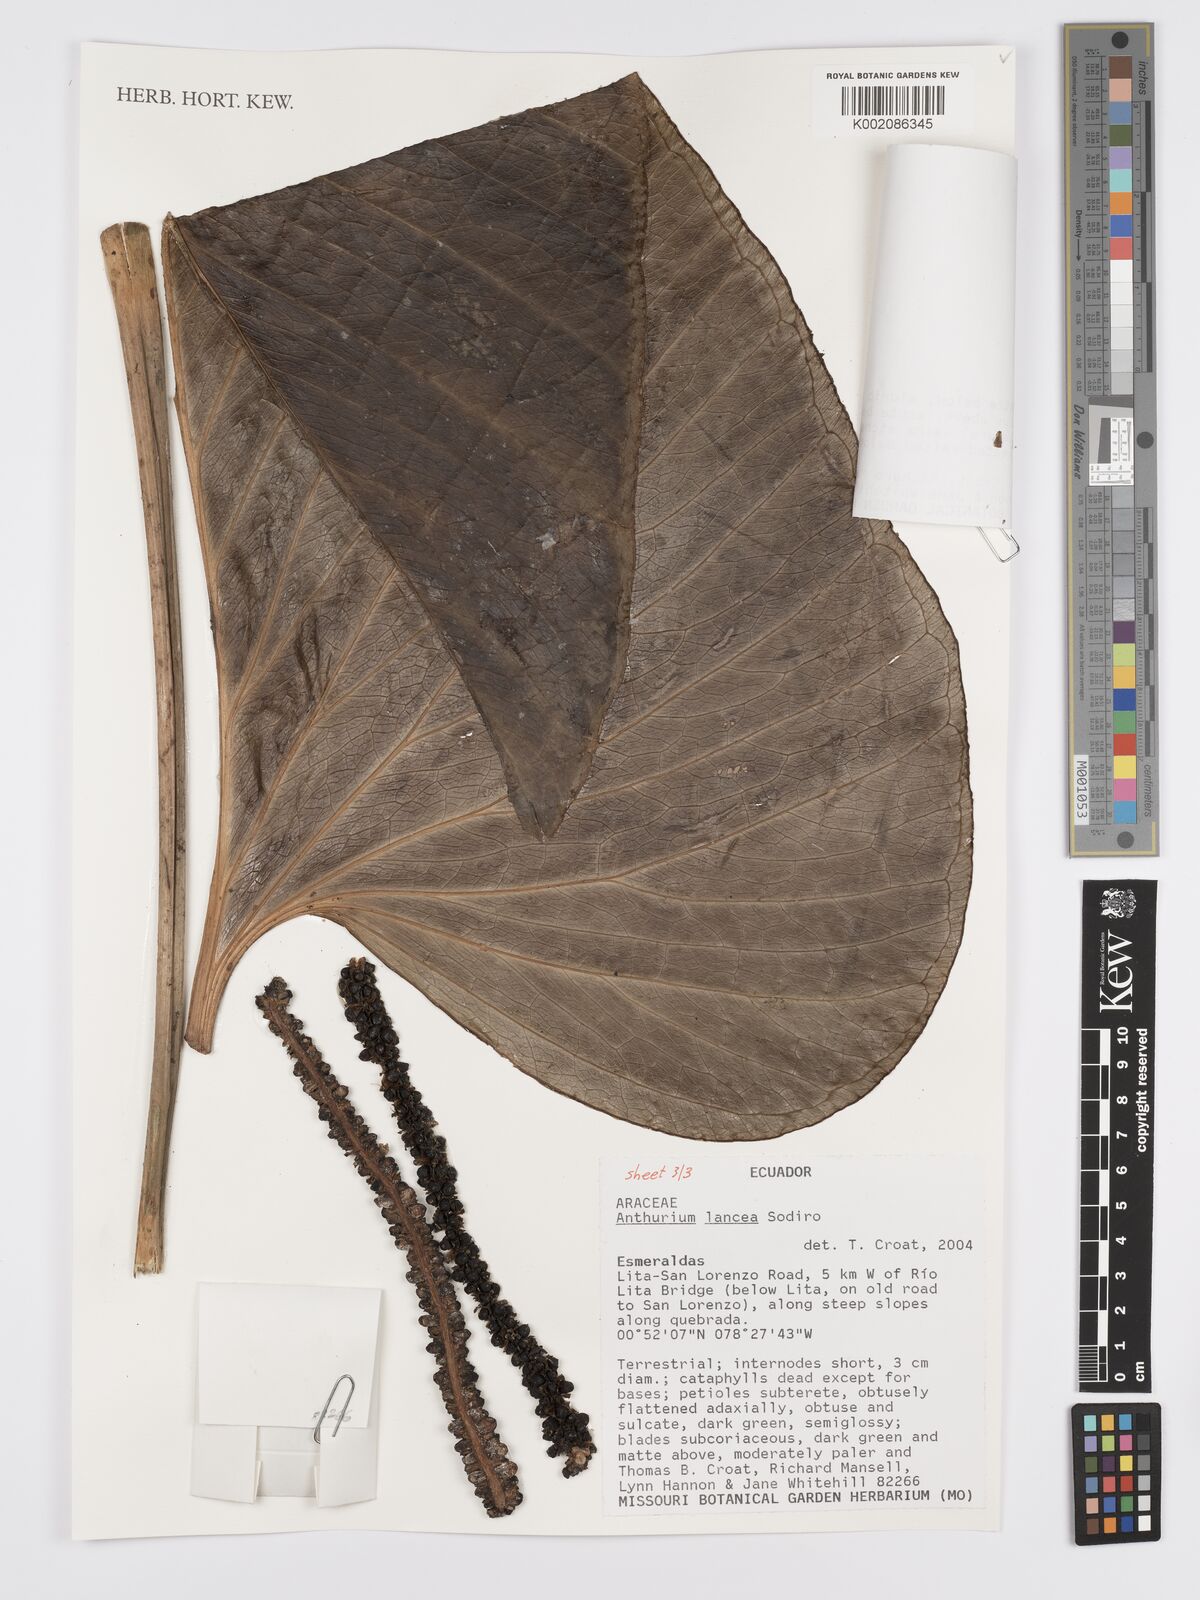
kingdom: Plantae
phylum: Tracheophyta
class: Liliopsida
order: Alismatales
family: Araceae
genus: Anthurium
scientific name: Anthurium lancea
